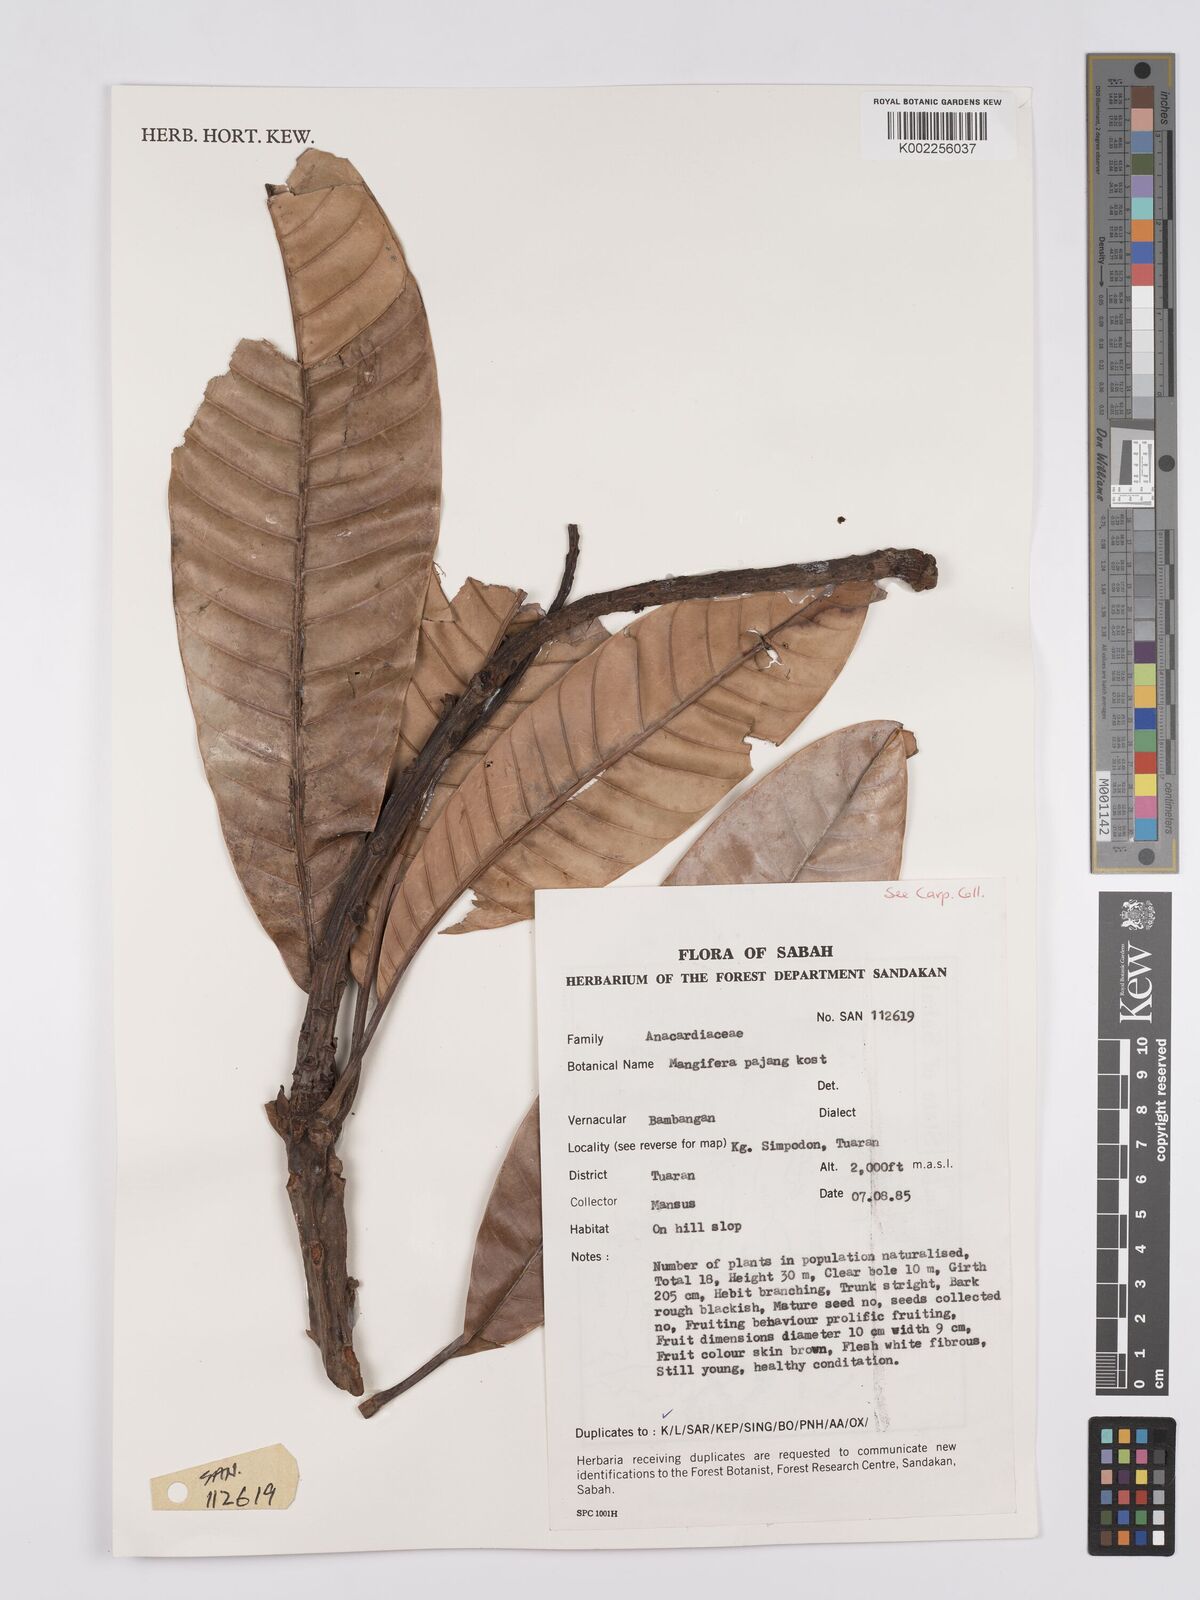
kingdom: Plantae
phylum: Tracheophyta
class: Magnoliopsida
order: Sapindales
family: Anacardiaceae
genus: Mangifera
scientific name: Mangifera pajang
